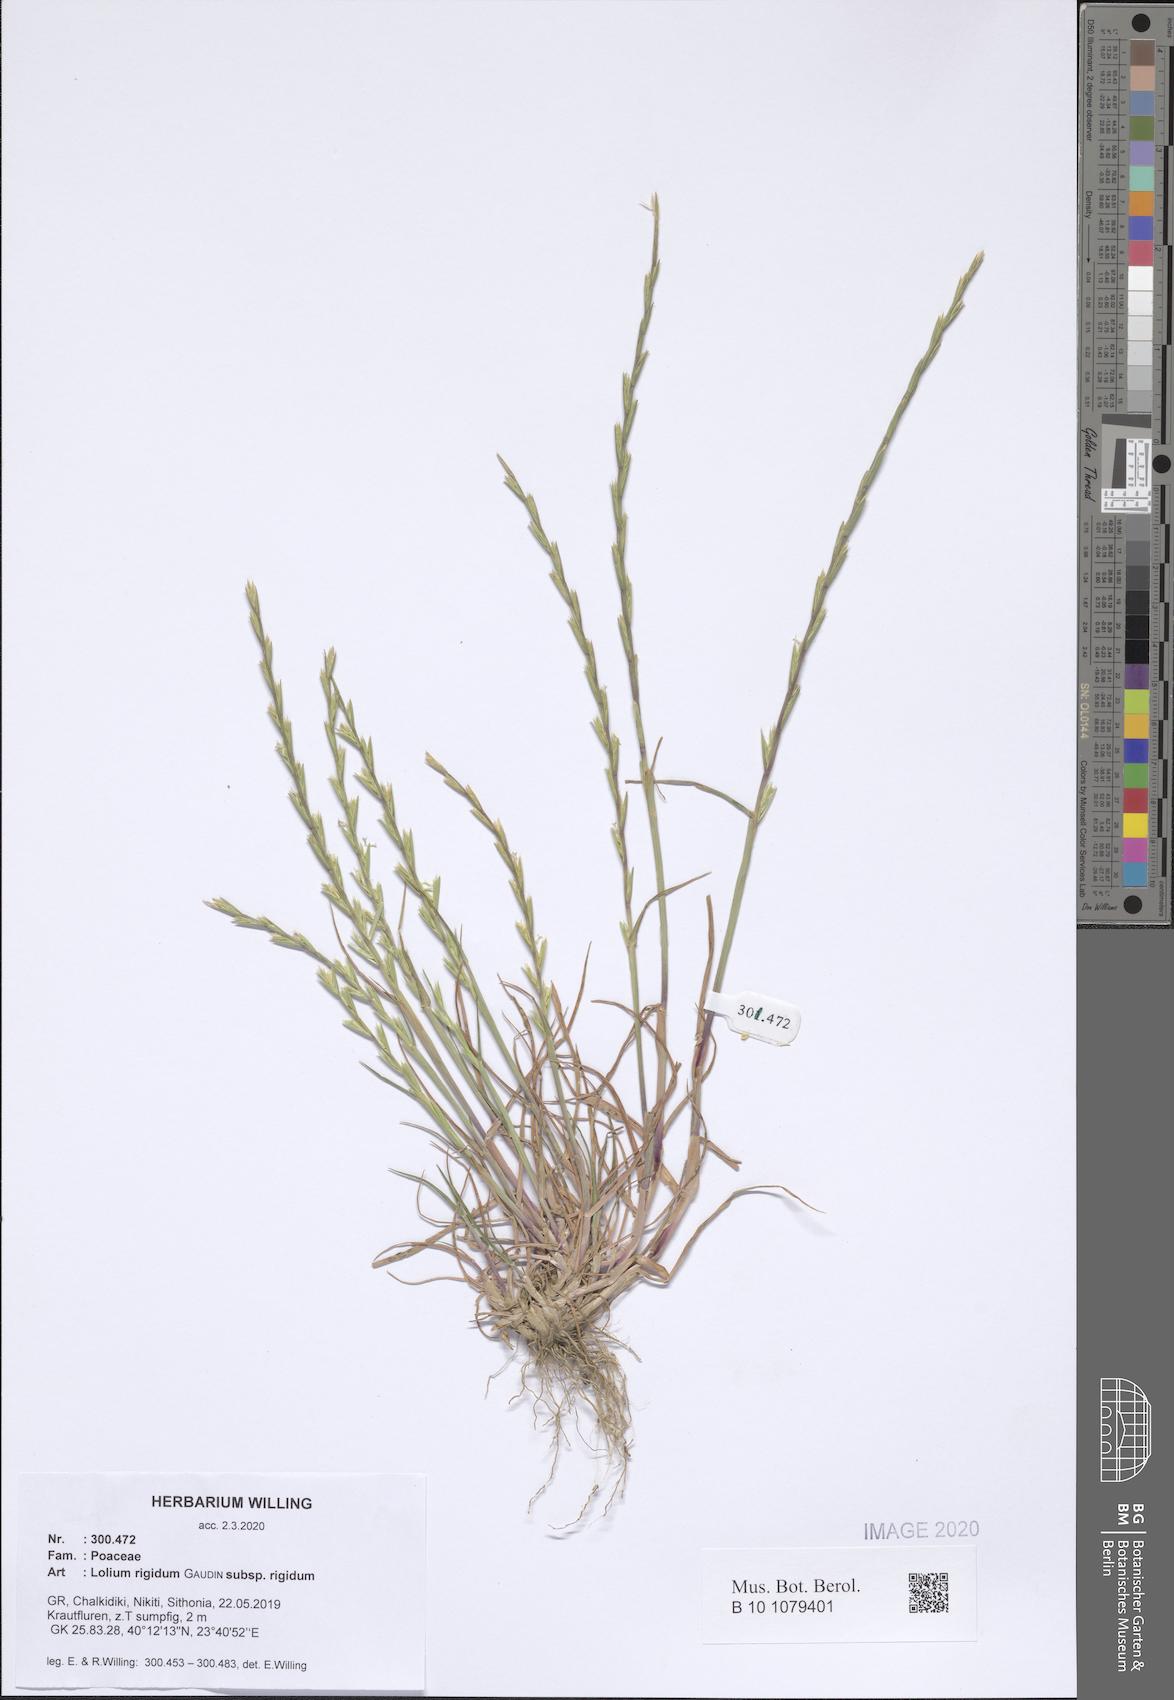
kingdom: Plantae
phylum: Tracheophyta
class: Liliopsida
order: Poales
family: Poaceae
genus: Lolium
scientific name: Lolium rigidum
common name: Wimmera ryegrass
